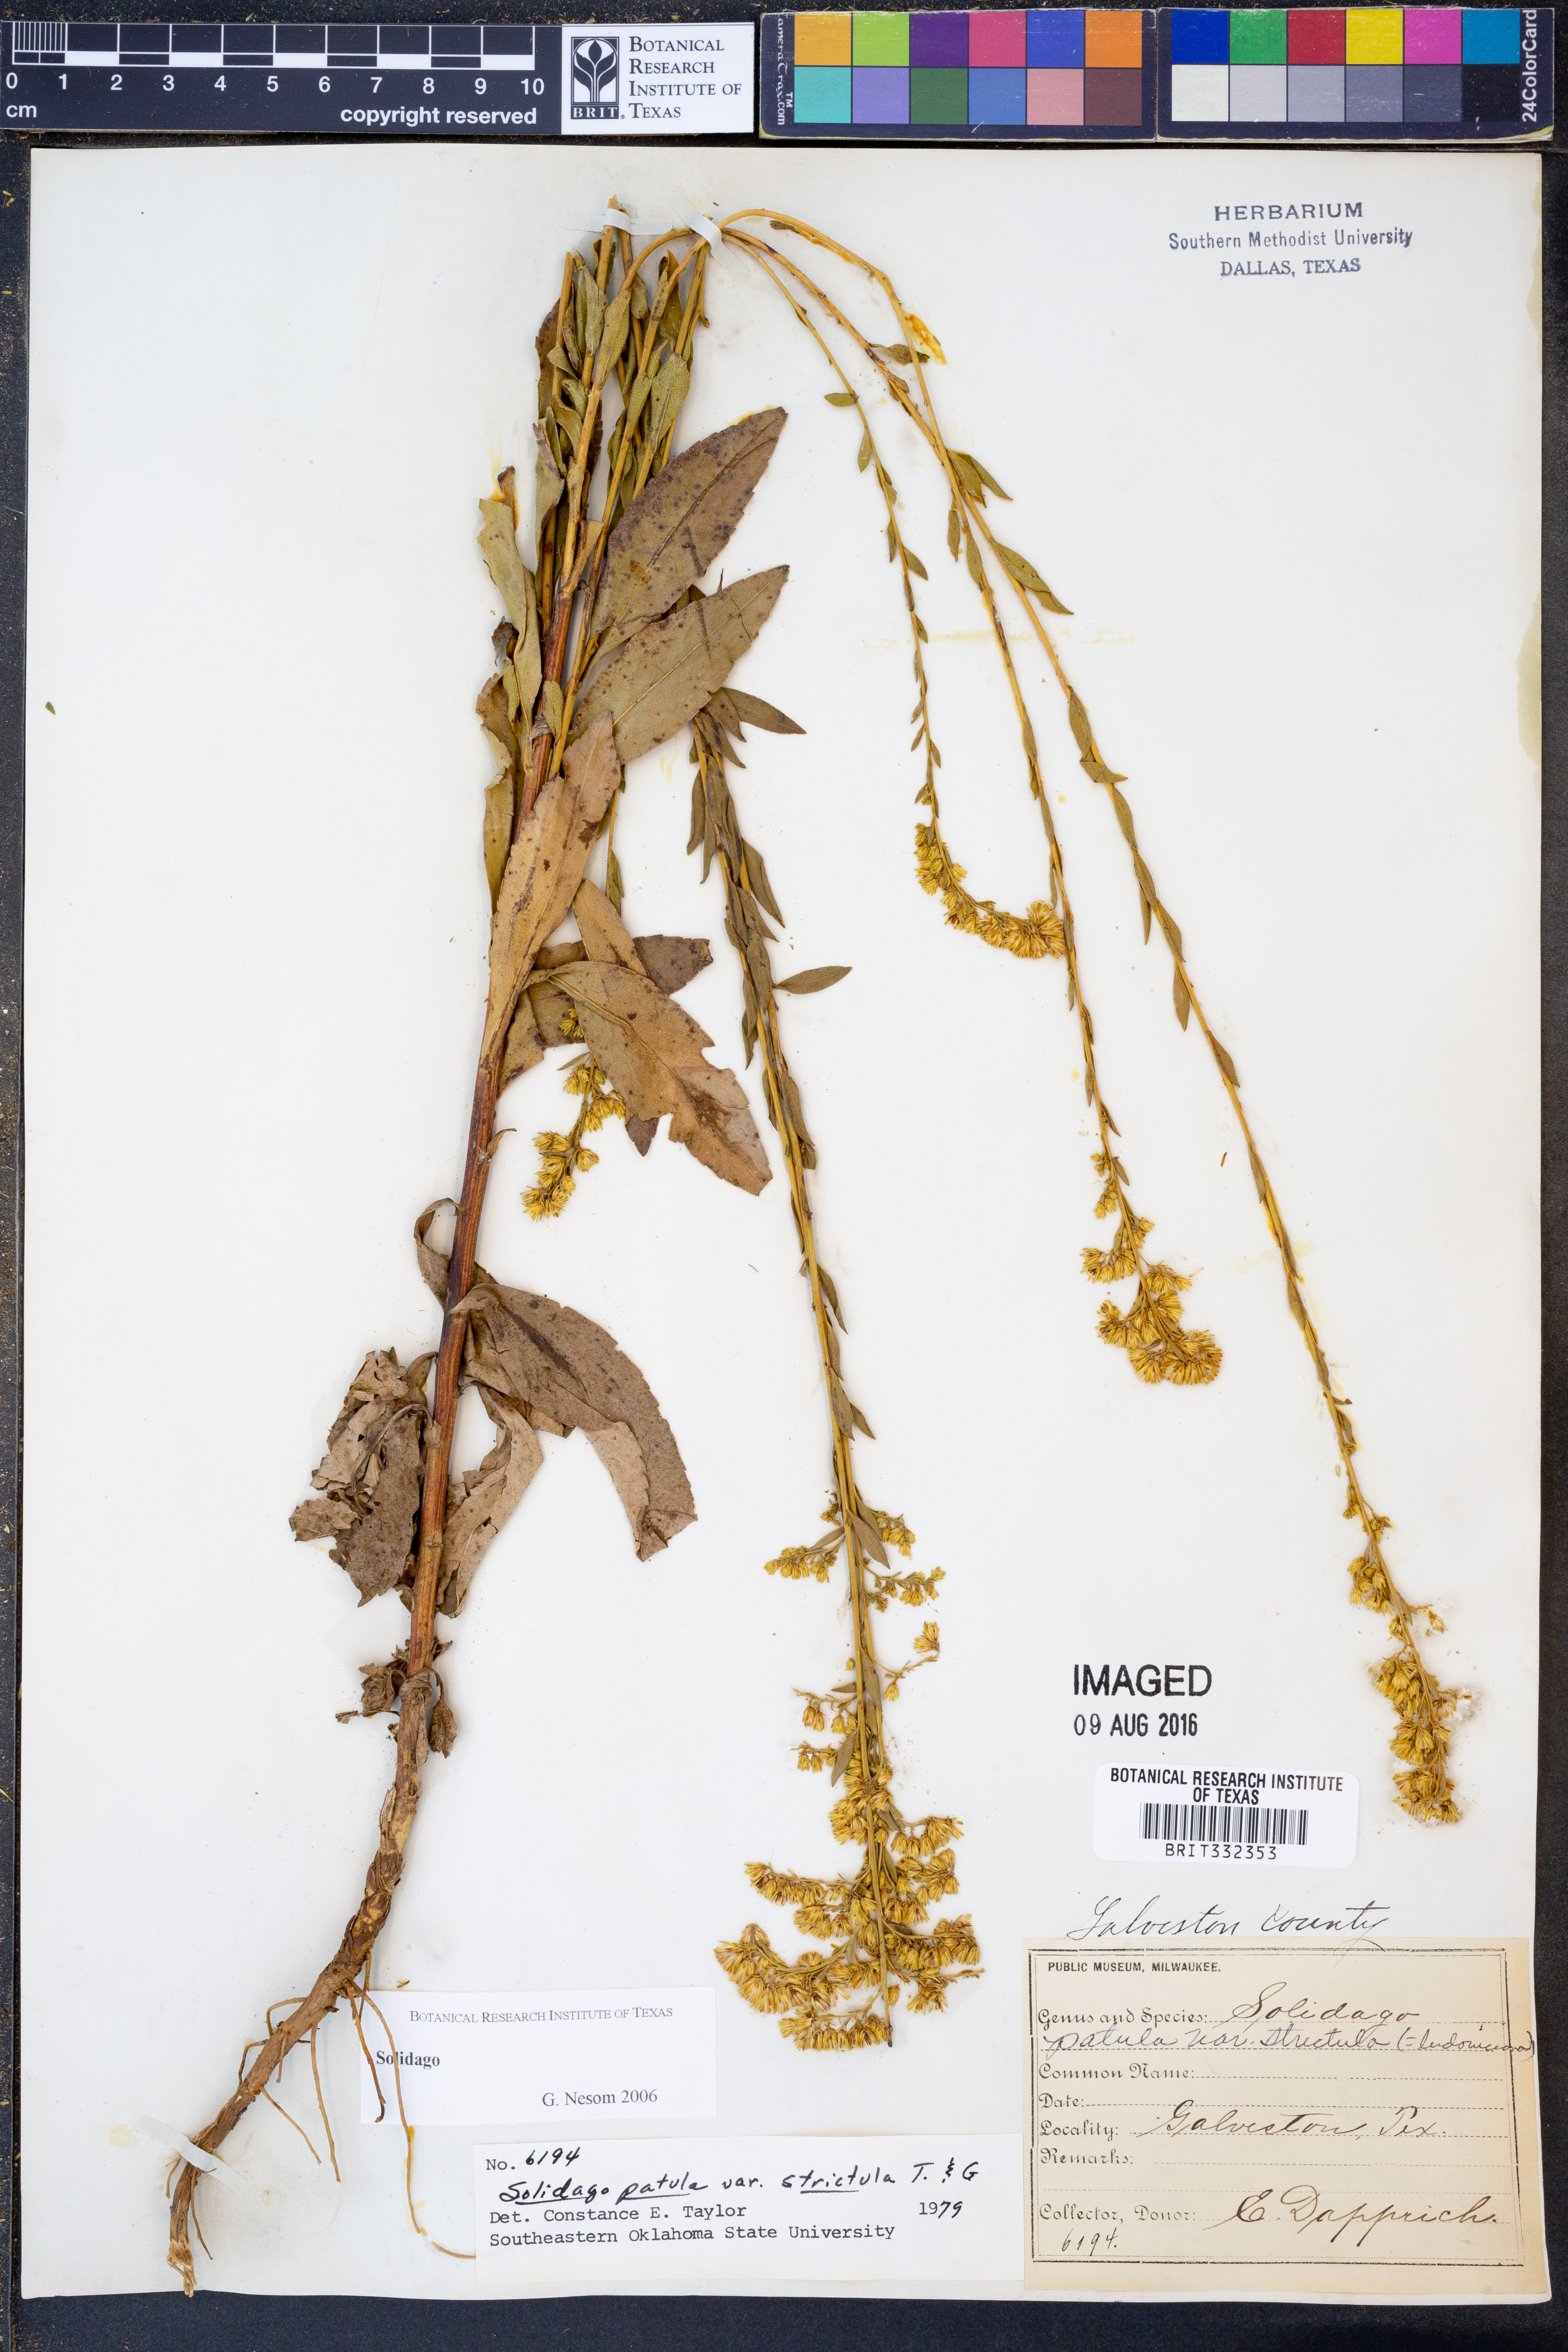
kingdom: Plantae
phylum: Tracheophyta
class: Magnoliopsida
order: Asterales
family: Asteraceae
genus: Solidago
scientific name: Solidago salicina
